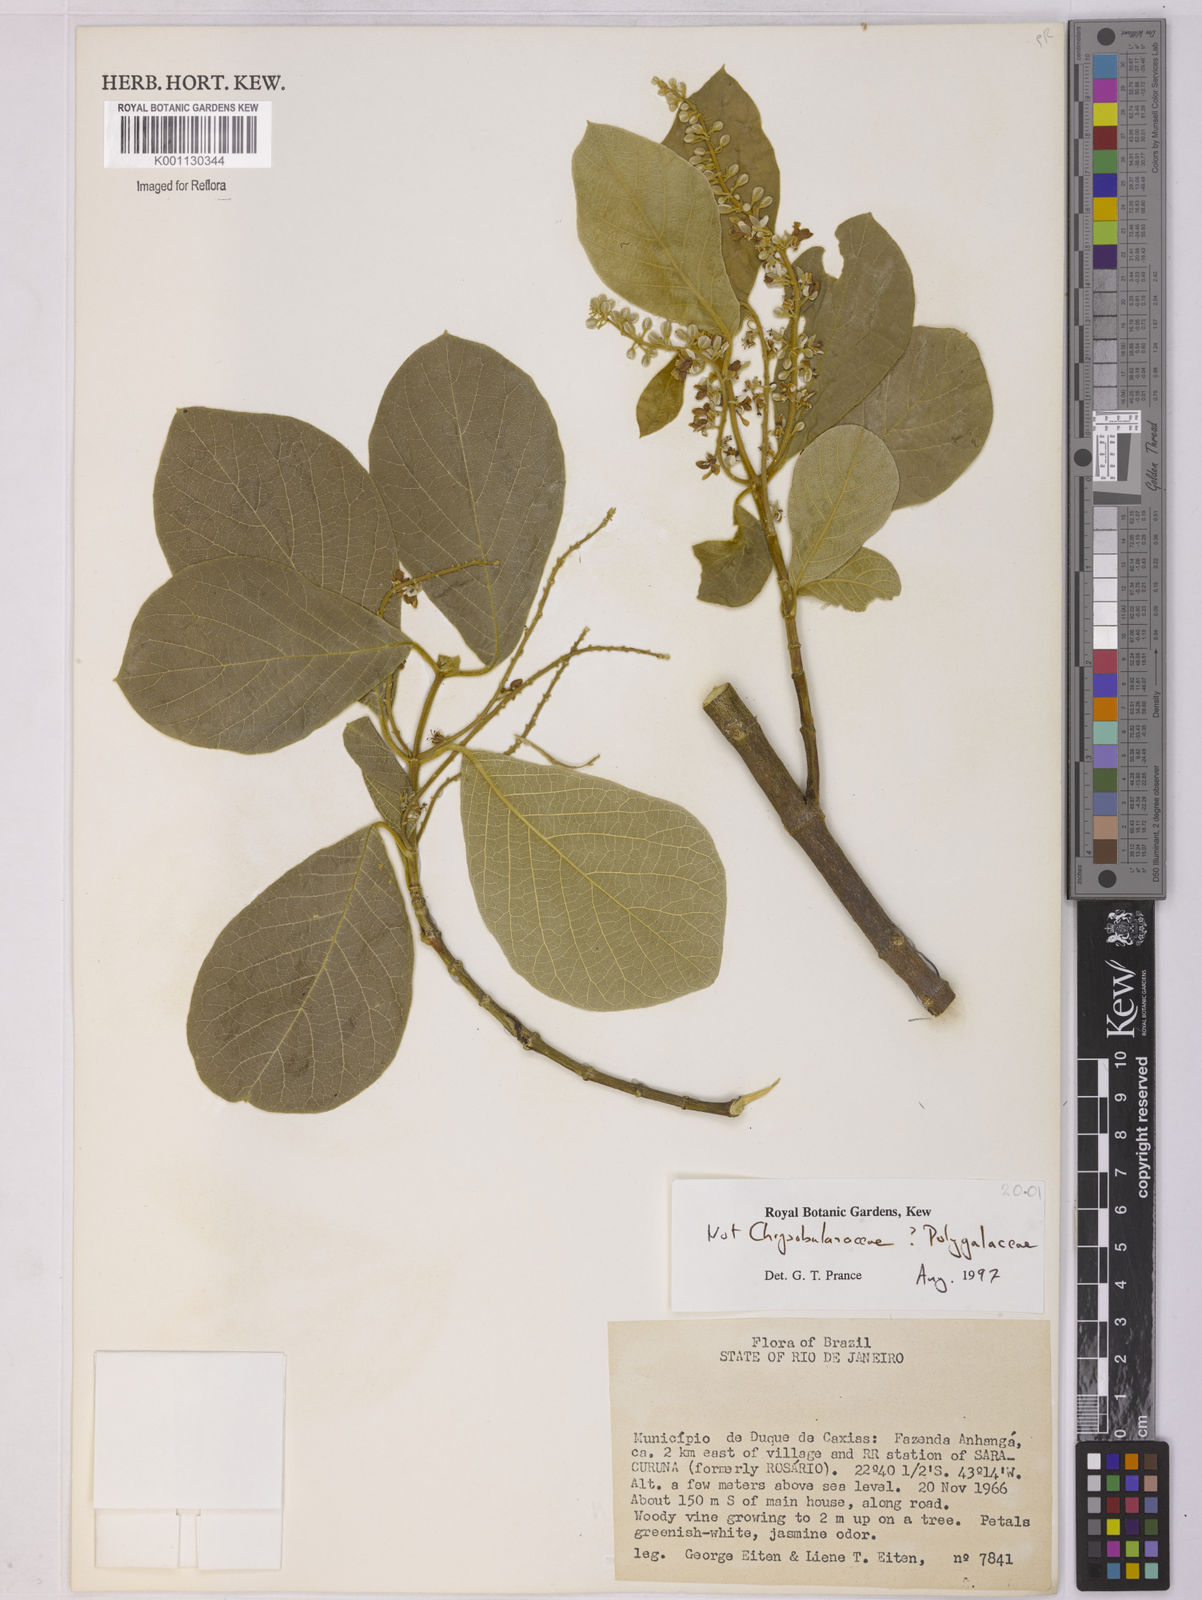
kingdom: Plantae
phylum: Tracheophyta
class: Magnoliopsida
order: Fabales
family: Polygalaceae
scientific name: Polygalaceae
